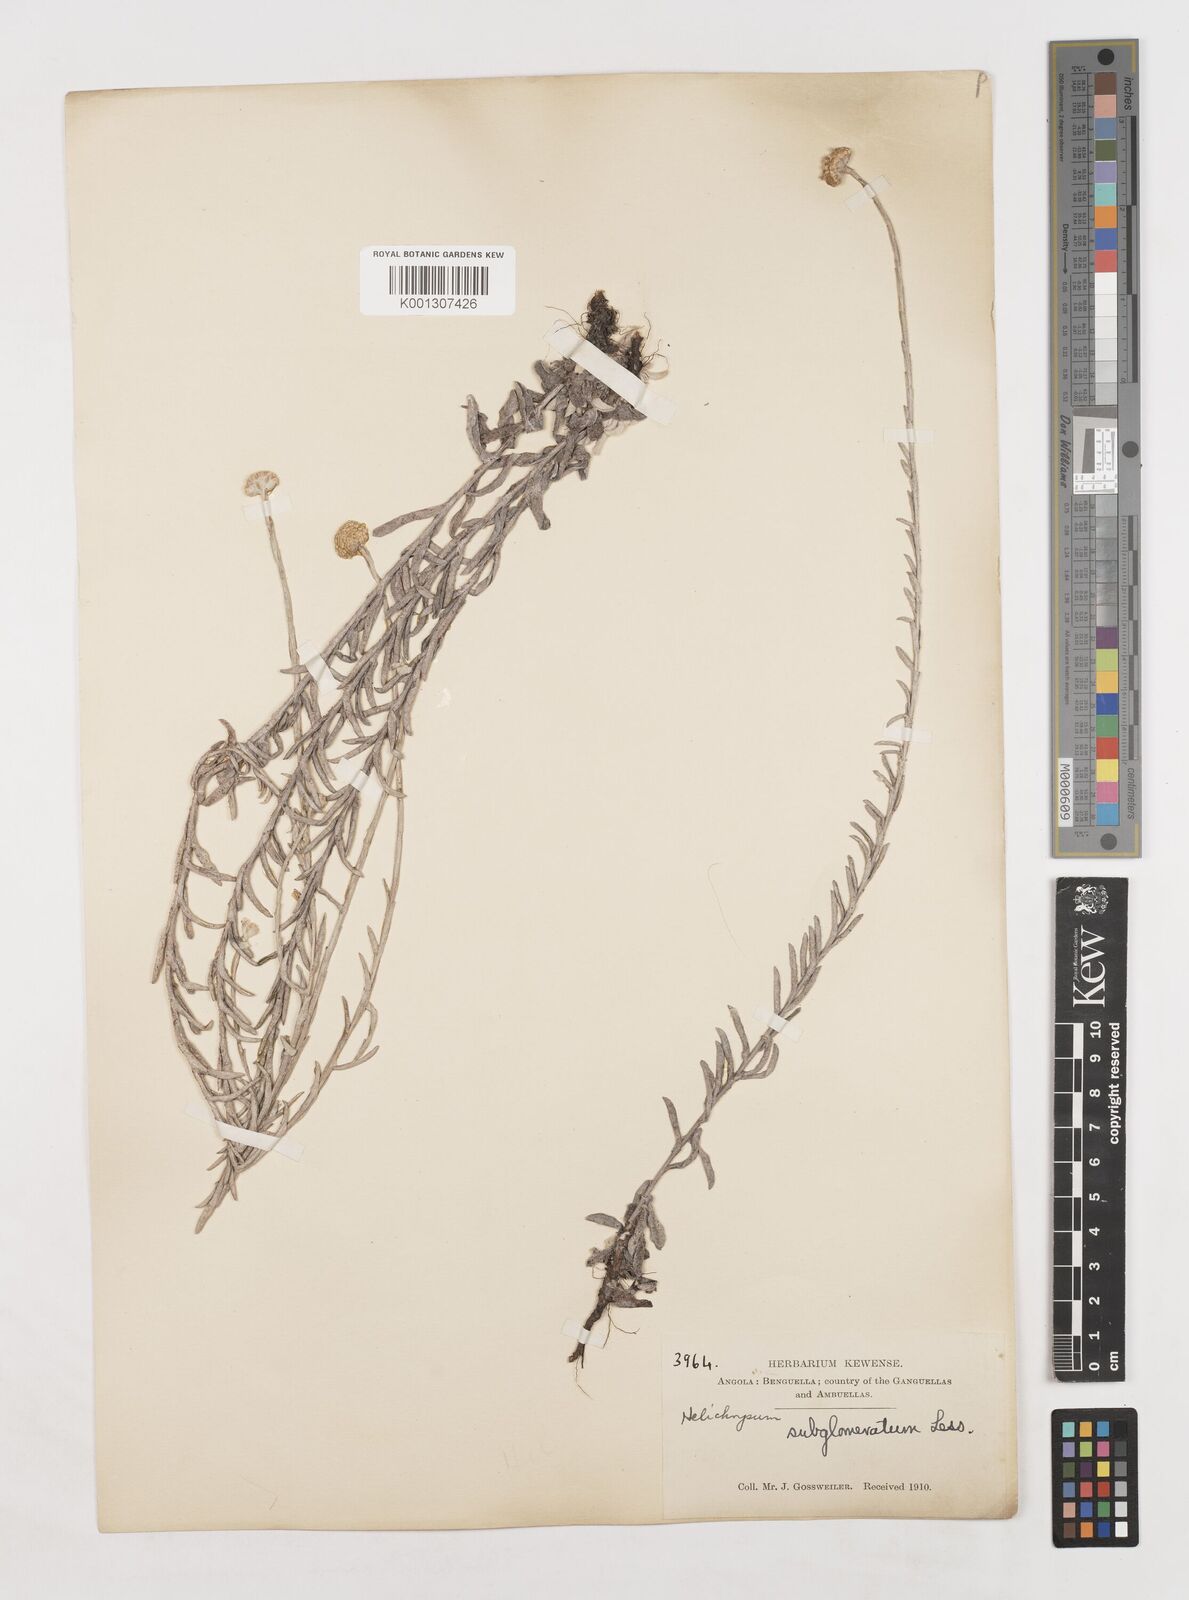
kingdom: Plantae
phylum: Tracheophyta
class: Magnoliopsida
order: Asterales
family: Asteraceae
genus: Helichrysum
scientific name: Helichrysum
